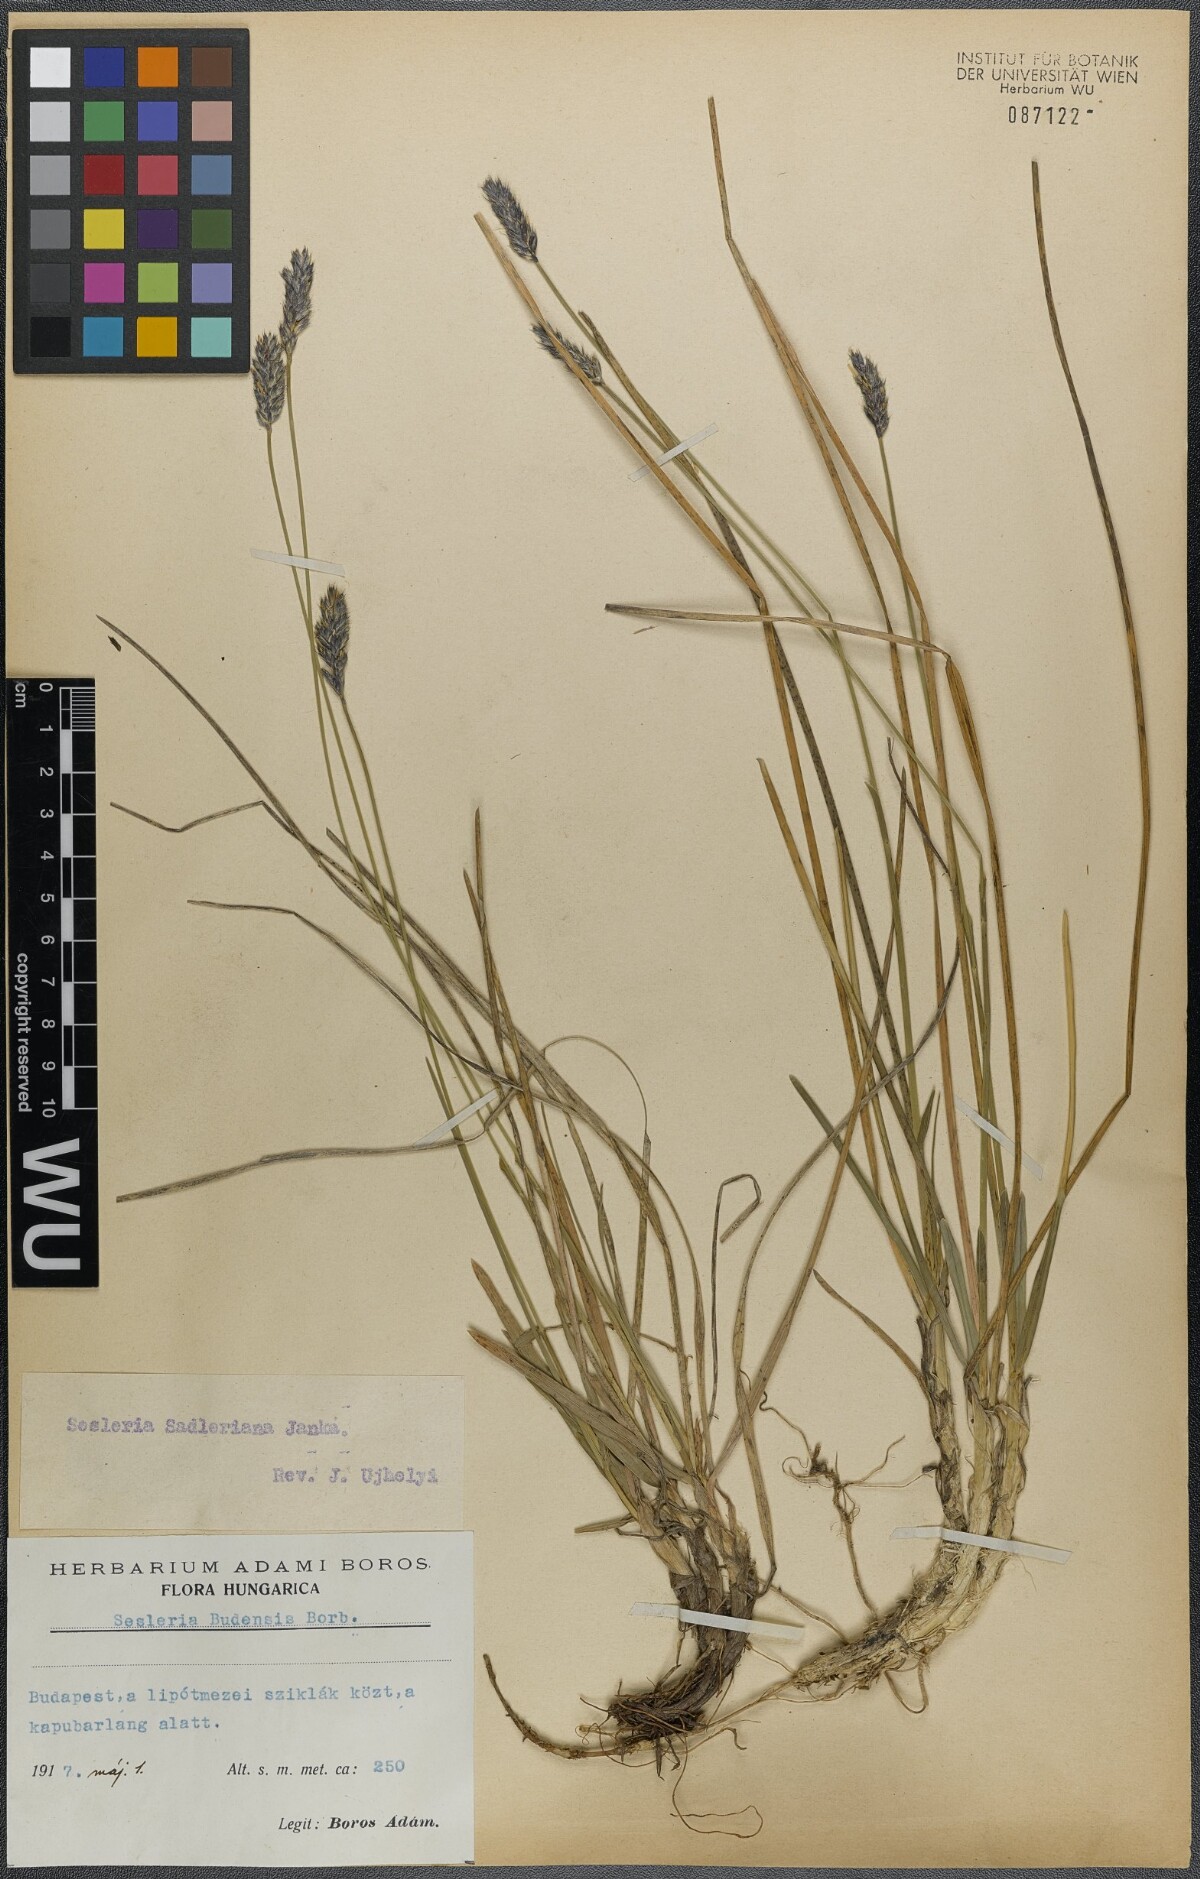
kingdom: Plantae
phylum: Tracheophyta
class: Liliopsida
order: Poales
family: Poaceae
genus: Sesleria
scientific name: Sesleria sadleriana
